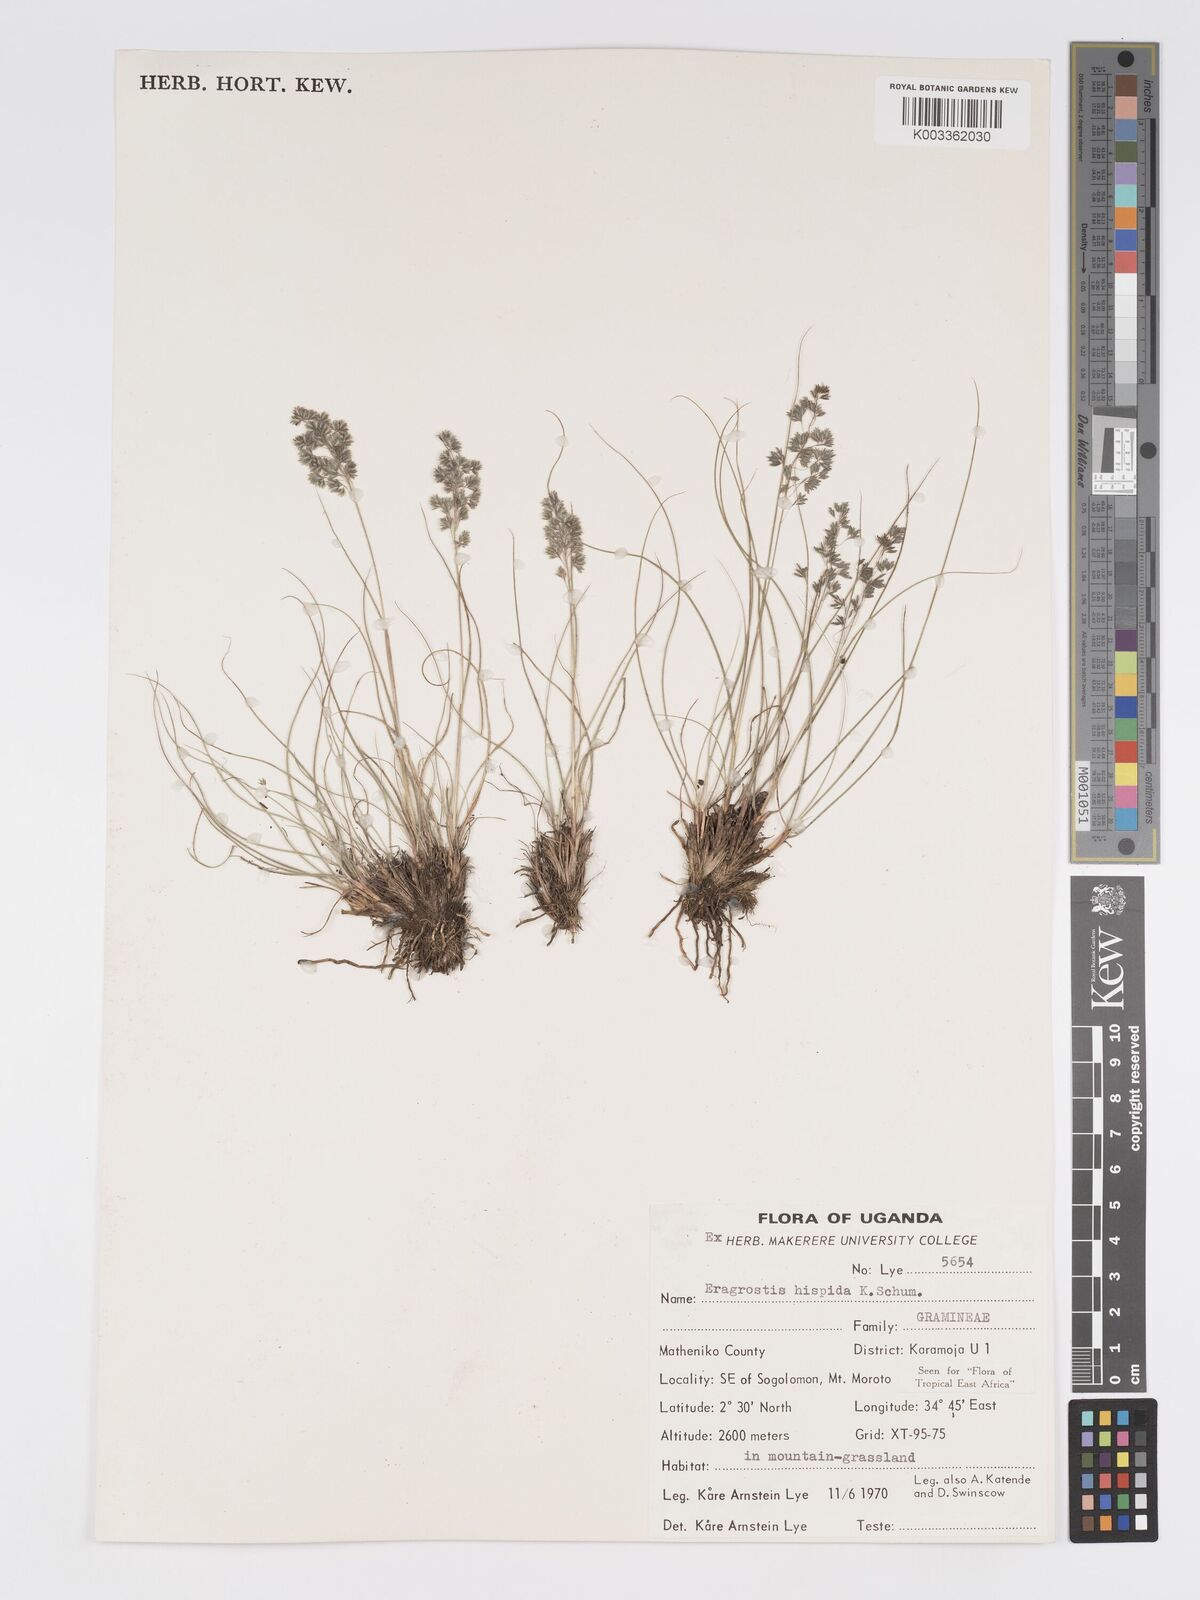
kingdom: Plantae
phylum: Tracheophyta
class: Liliopsida
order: Poales
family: Poaceae
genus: Eragrostis
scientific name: Eragrostis hispida
